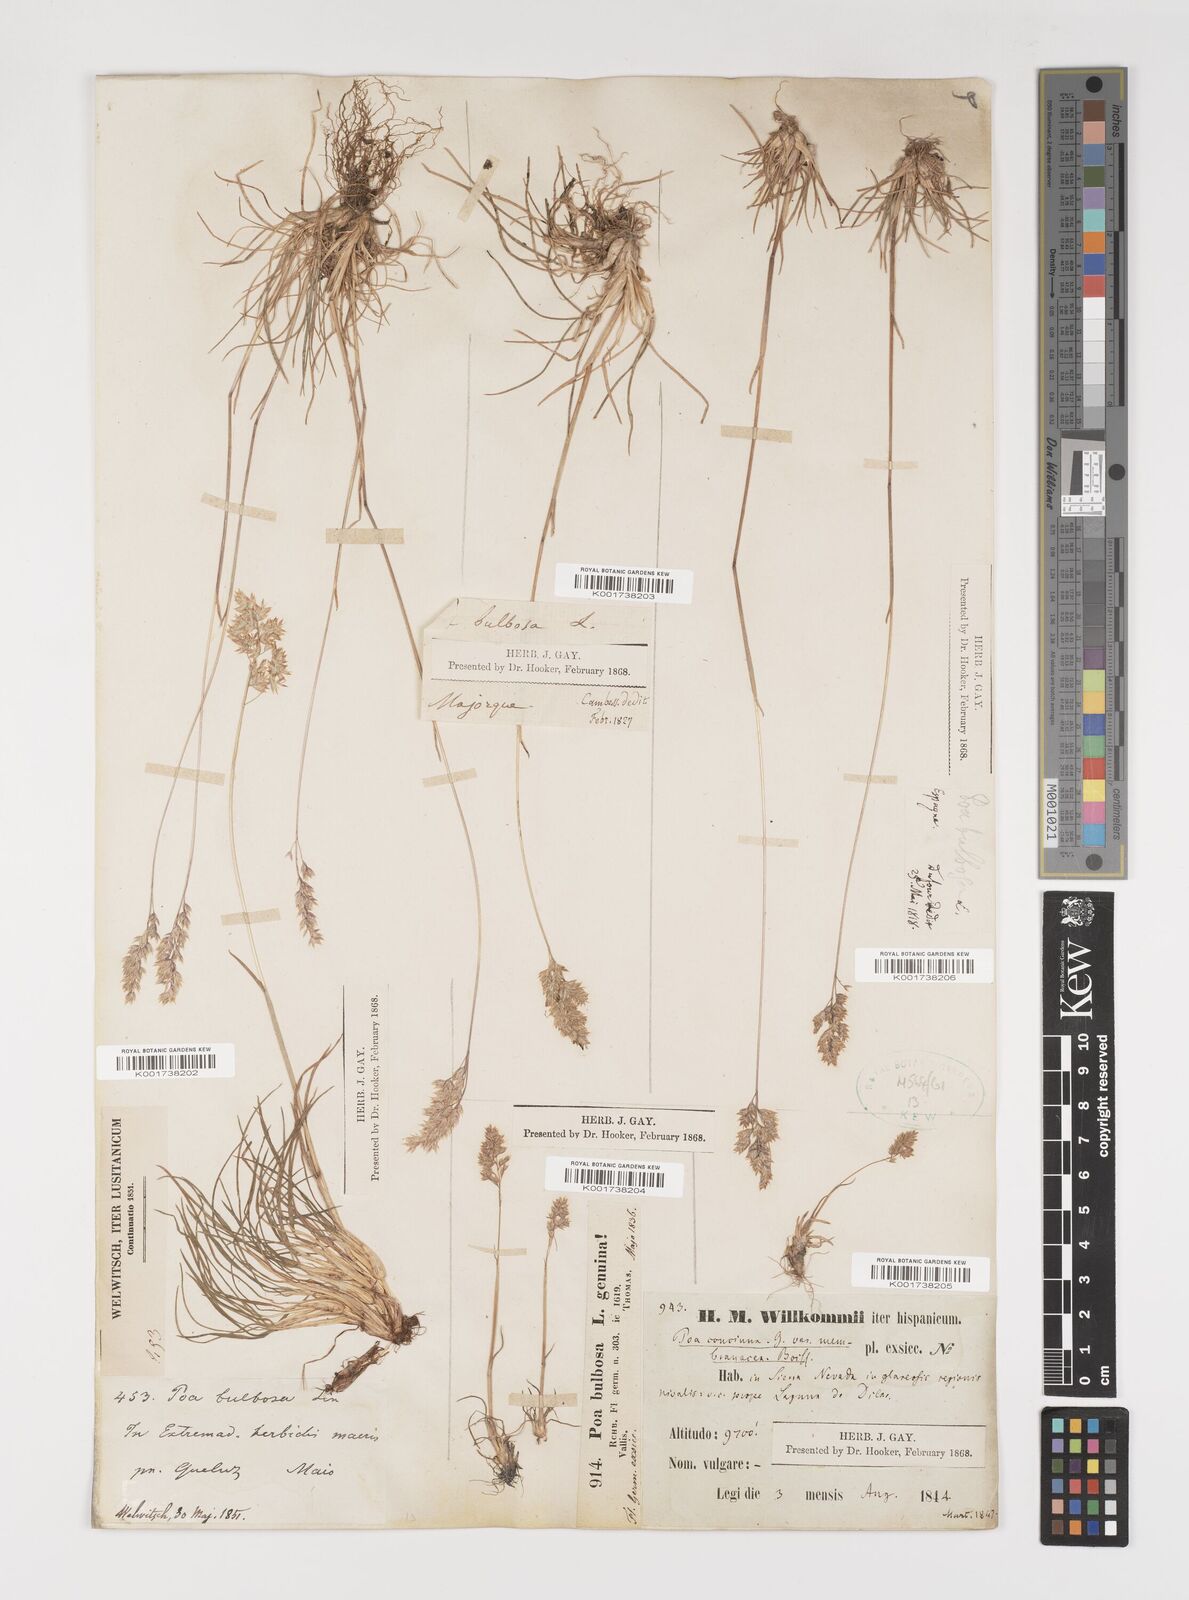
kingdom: Plantae
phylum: Tracheophyta
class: Liliopsida
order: Poales
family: Poaceae
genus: Poa
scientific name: Poa bulbosa
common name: Bulbous bluegrass
